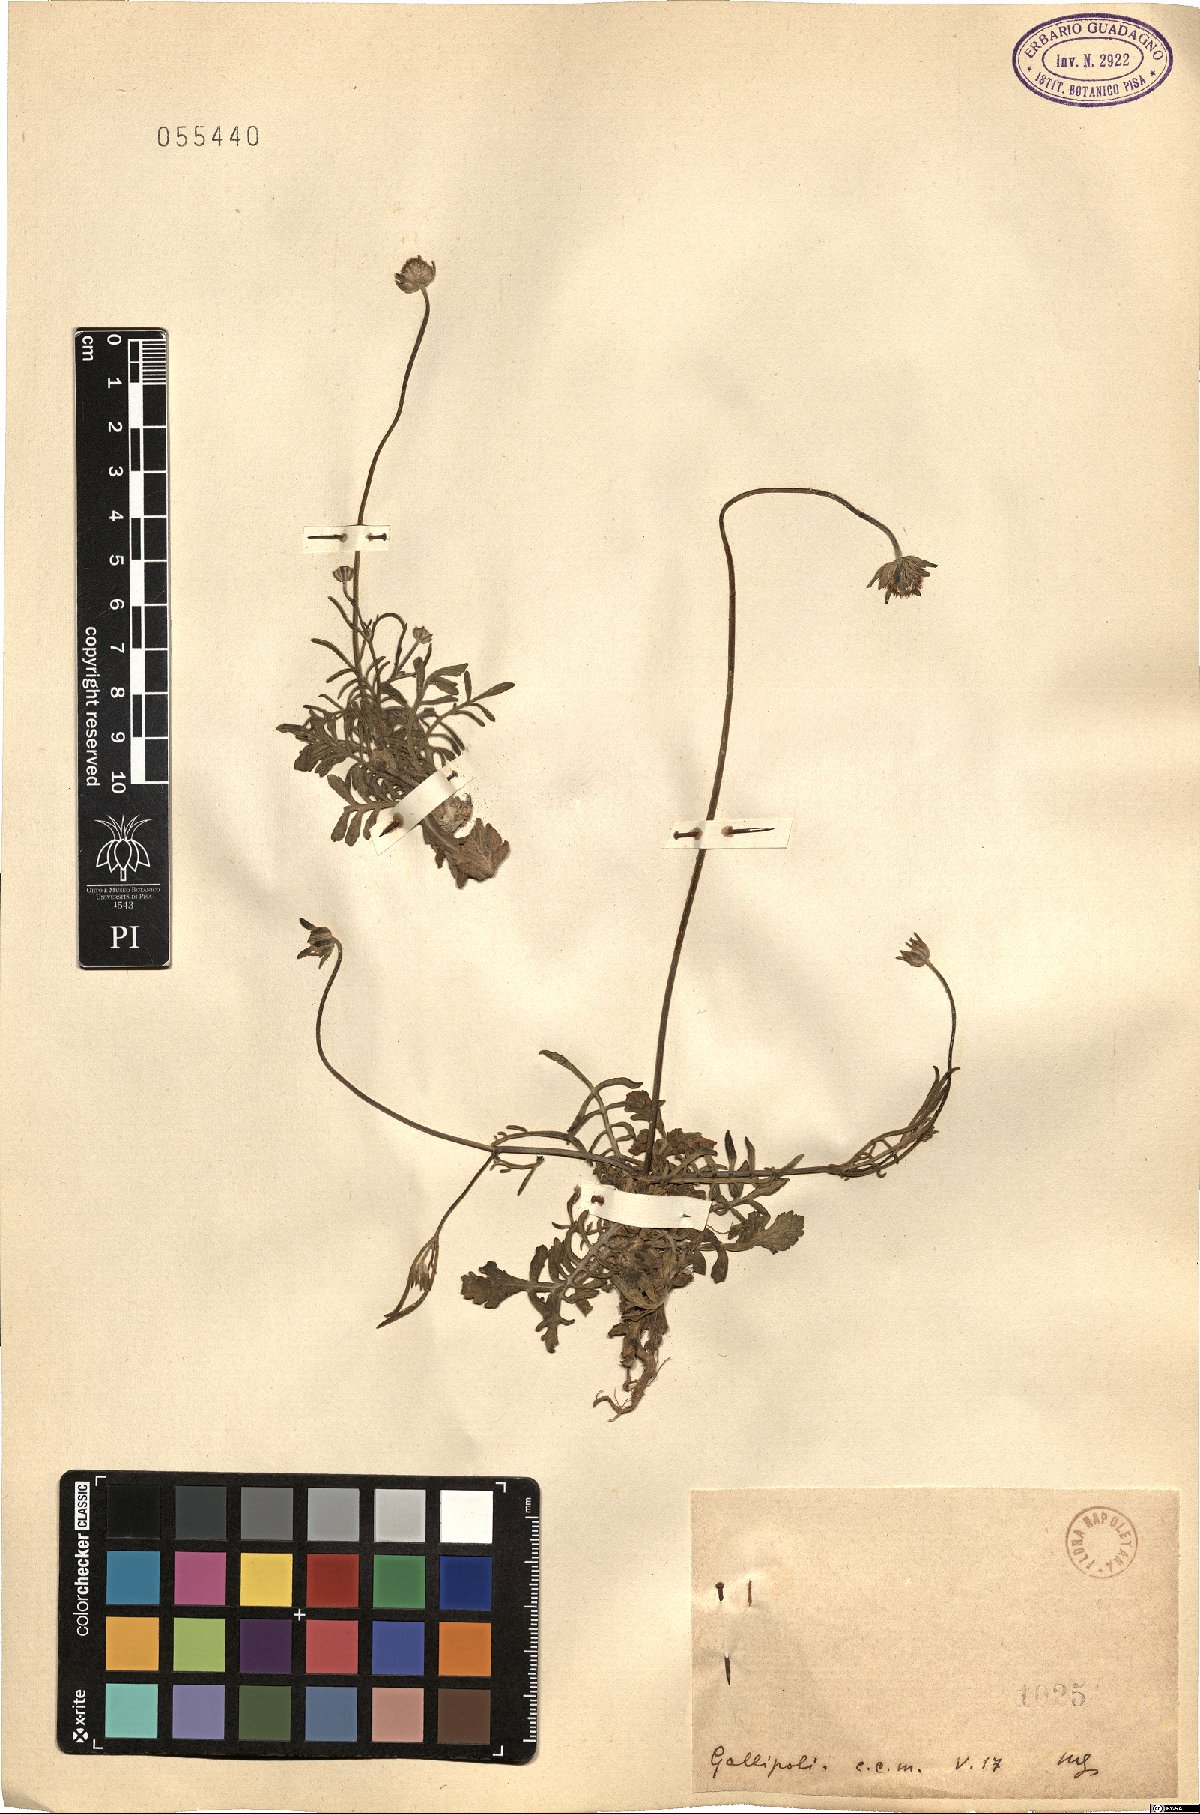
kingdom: Plantae
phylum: Tracheophyta
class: Magnoliopsida
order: Dipsacales
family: Caprifoliaceae
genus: Scabiosa
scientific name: Scabiosa
